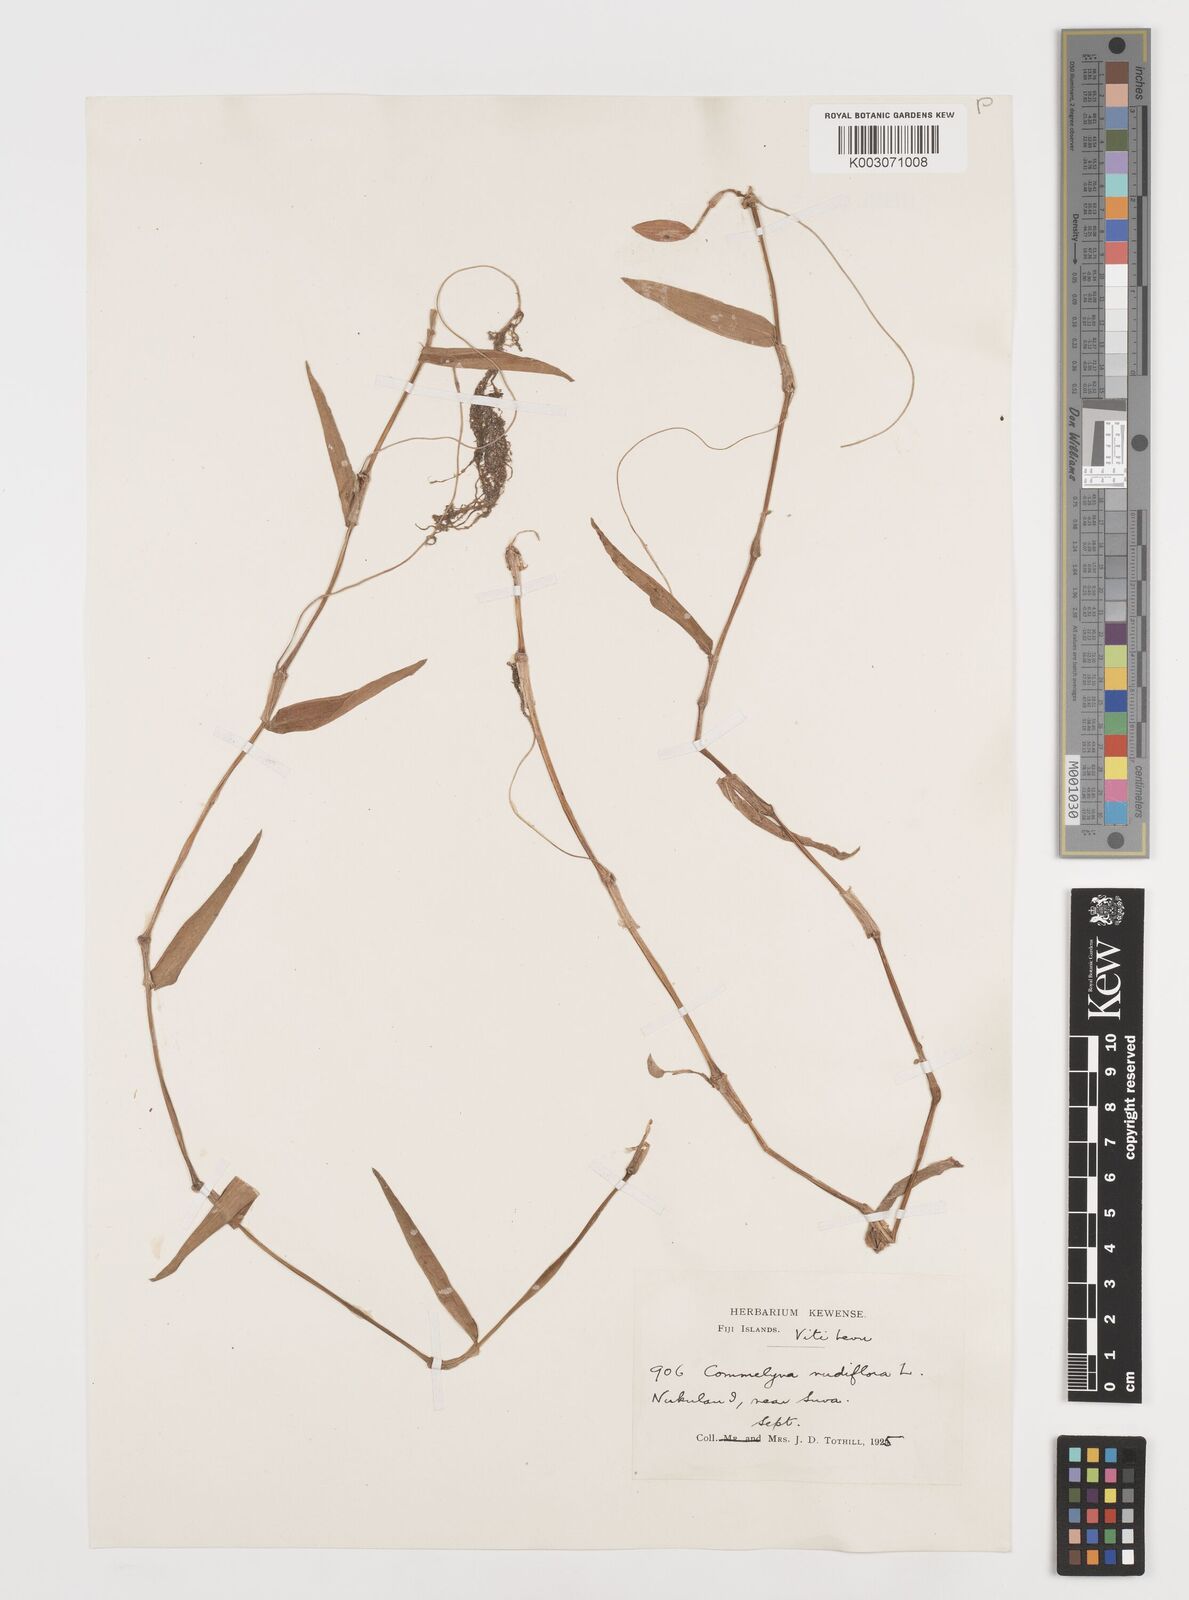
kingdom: Plantae
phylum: Tracheophyta
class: Liliopsida
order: Commelinales
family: Commelinaceae
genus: Commelina
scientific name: Commelina diffusa
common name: Climbing dayflower
